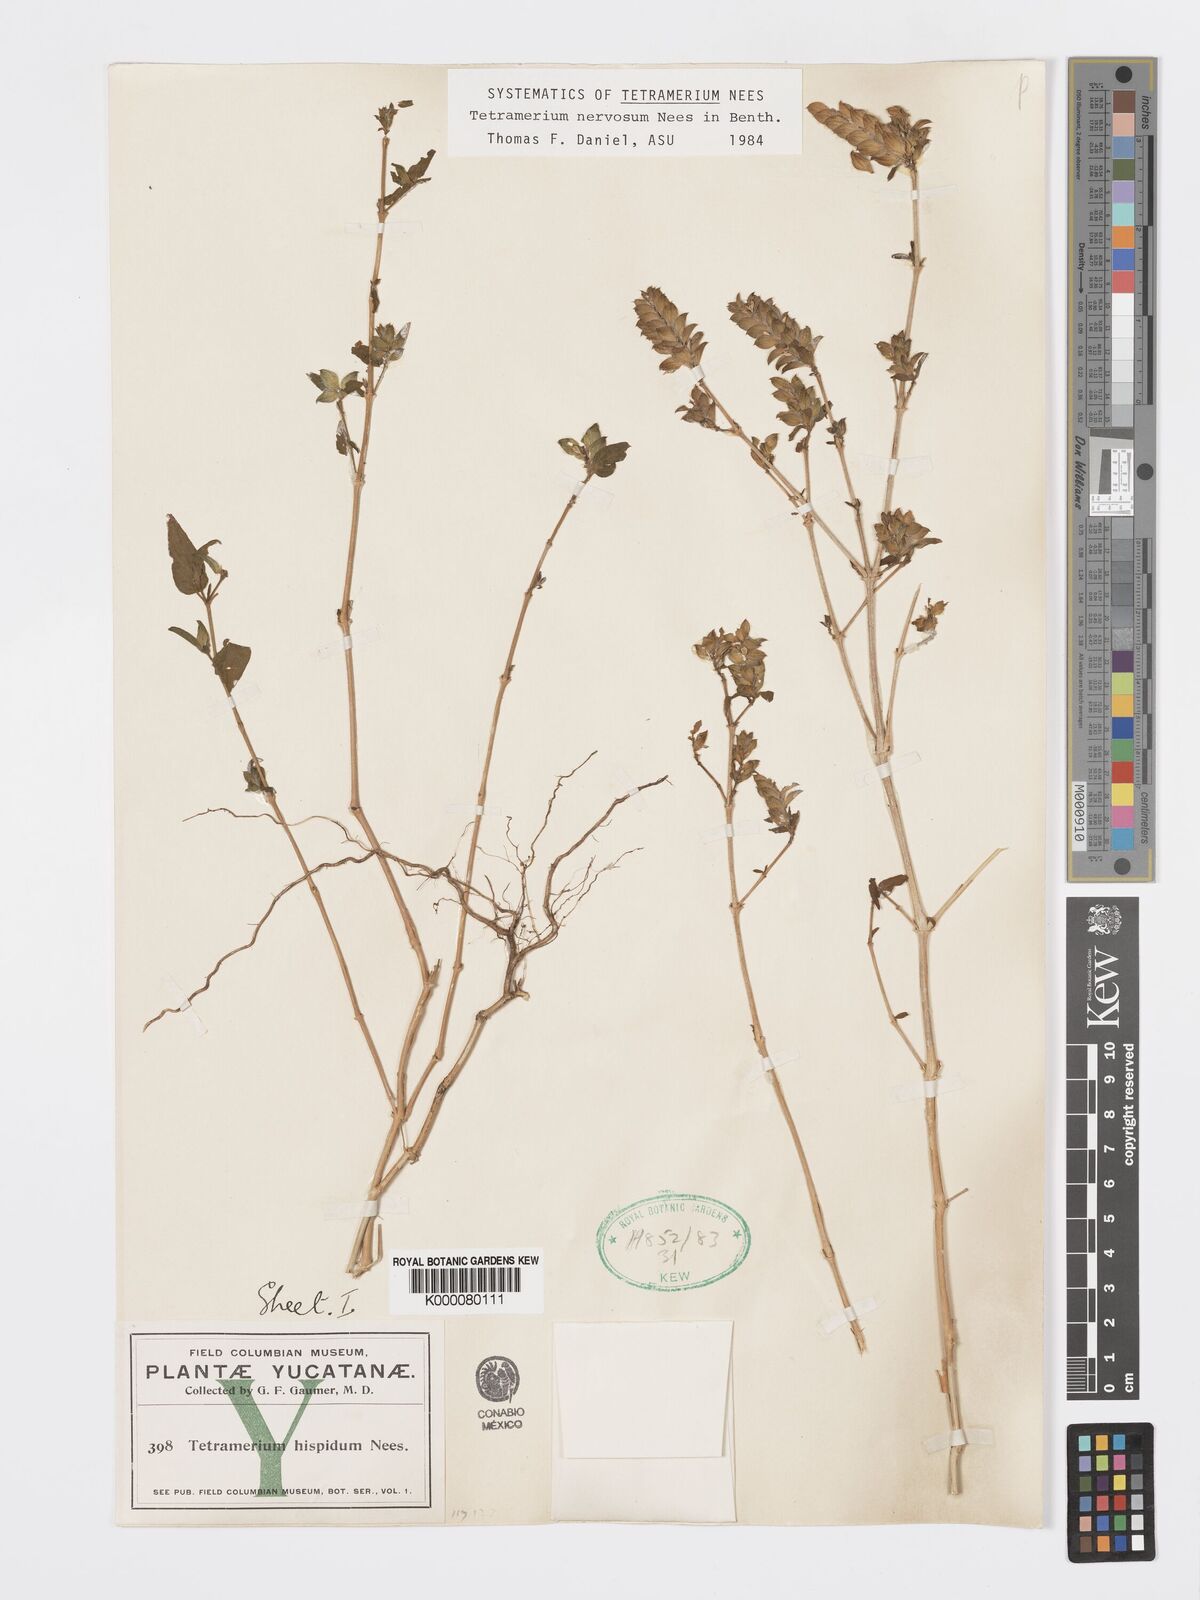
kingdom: Plantae
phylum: Tracheophyta
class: Magnoliopsida
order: Lamiales
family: Acanthaceae
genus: Tetramerium
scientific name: Tetramerium nervosum
